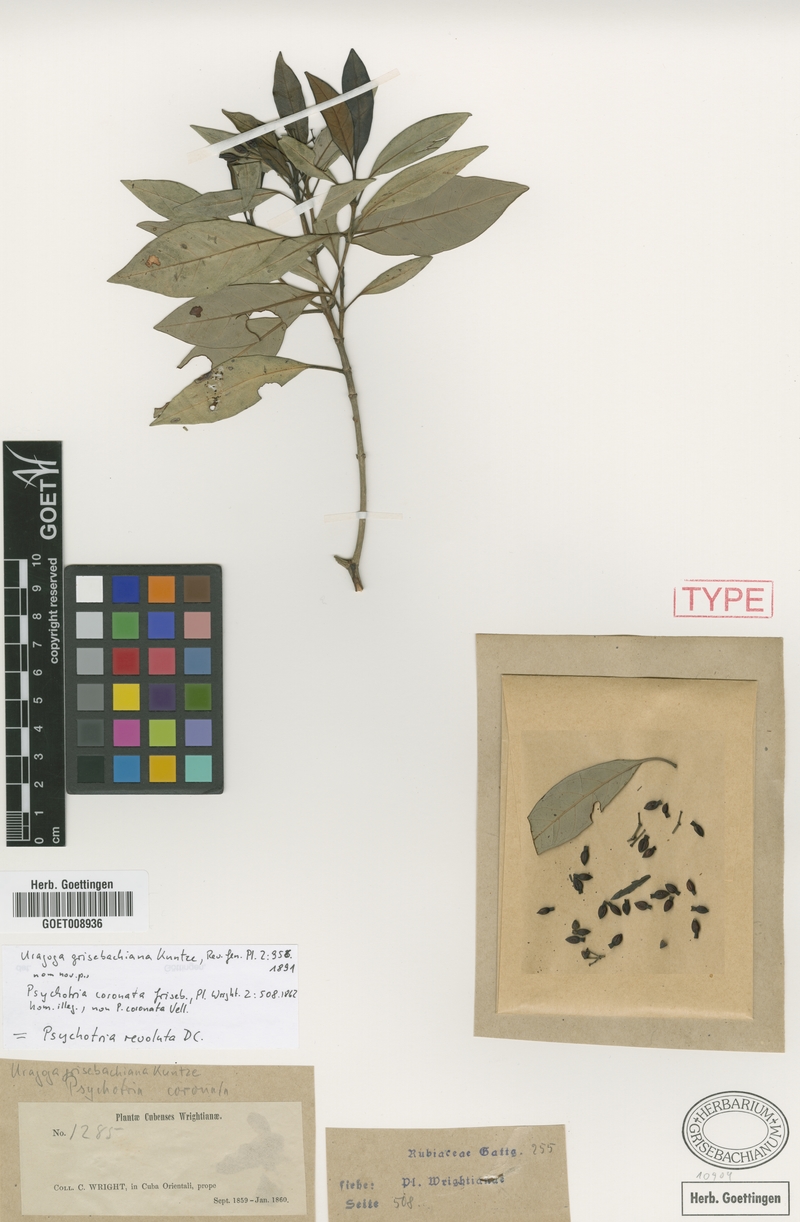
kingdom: Plantae
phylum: Tracheophyta
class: Magnoliopsida
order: Gentianales
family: Rubiaceae
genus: Psychotria
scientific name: Psychotria revoluta
